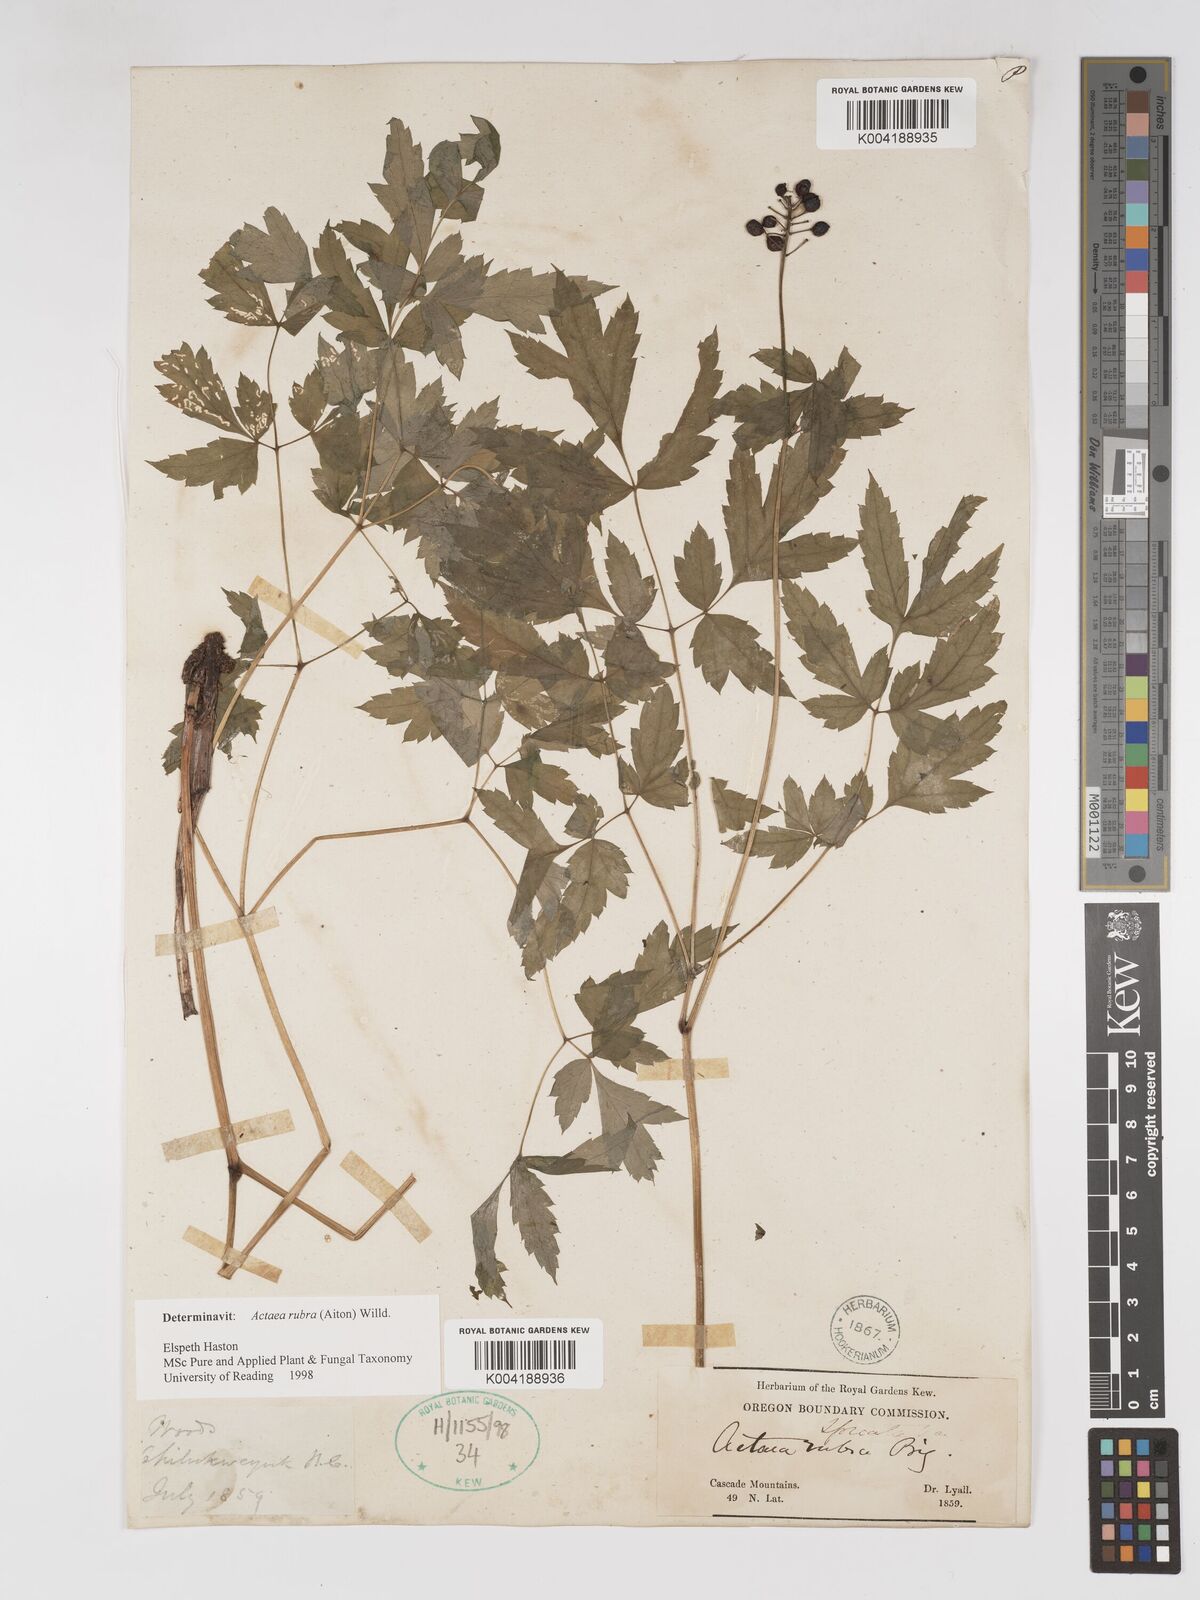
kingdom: Plantae
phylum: Tracheophyta
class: Magnoliopsida
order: Ranunculales
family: Ranunculaceae
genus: Actaea
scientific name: Actaea rubra
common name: Red baneberry
